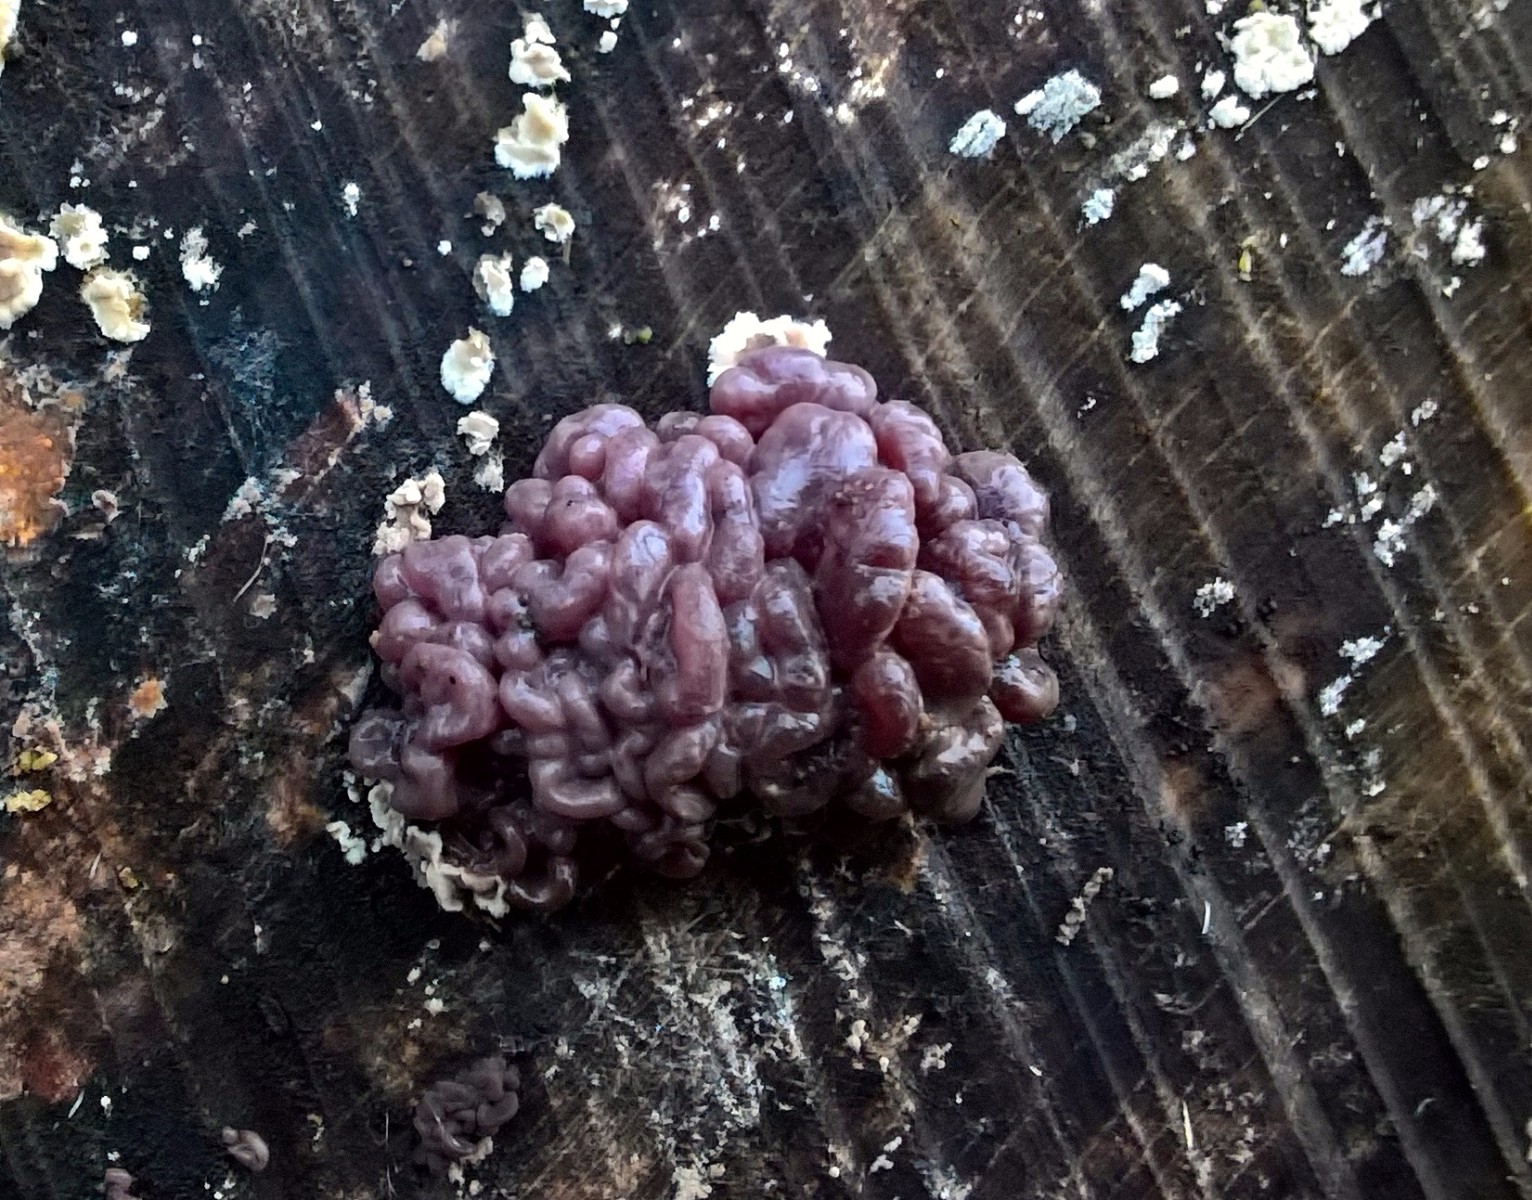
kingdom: Fungi
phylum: Ascomycota
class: Leotiomycetes
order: Helotiales
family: Gelatinodiscaceae
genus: Ascocoryne
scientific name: Ascocoryne sarcoides
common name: rødlilla sejskive
